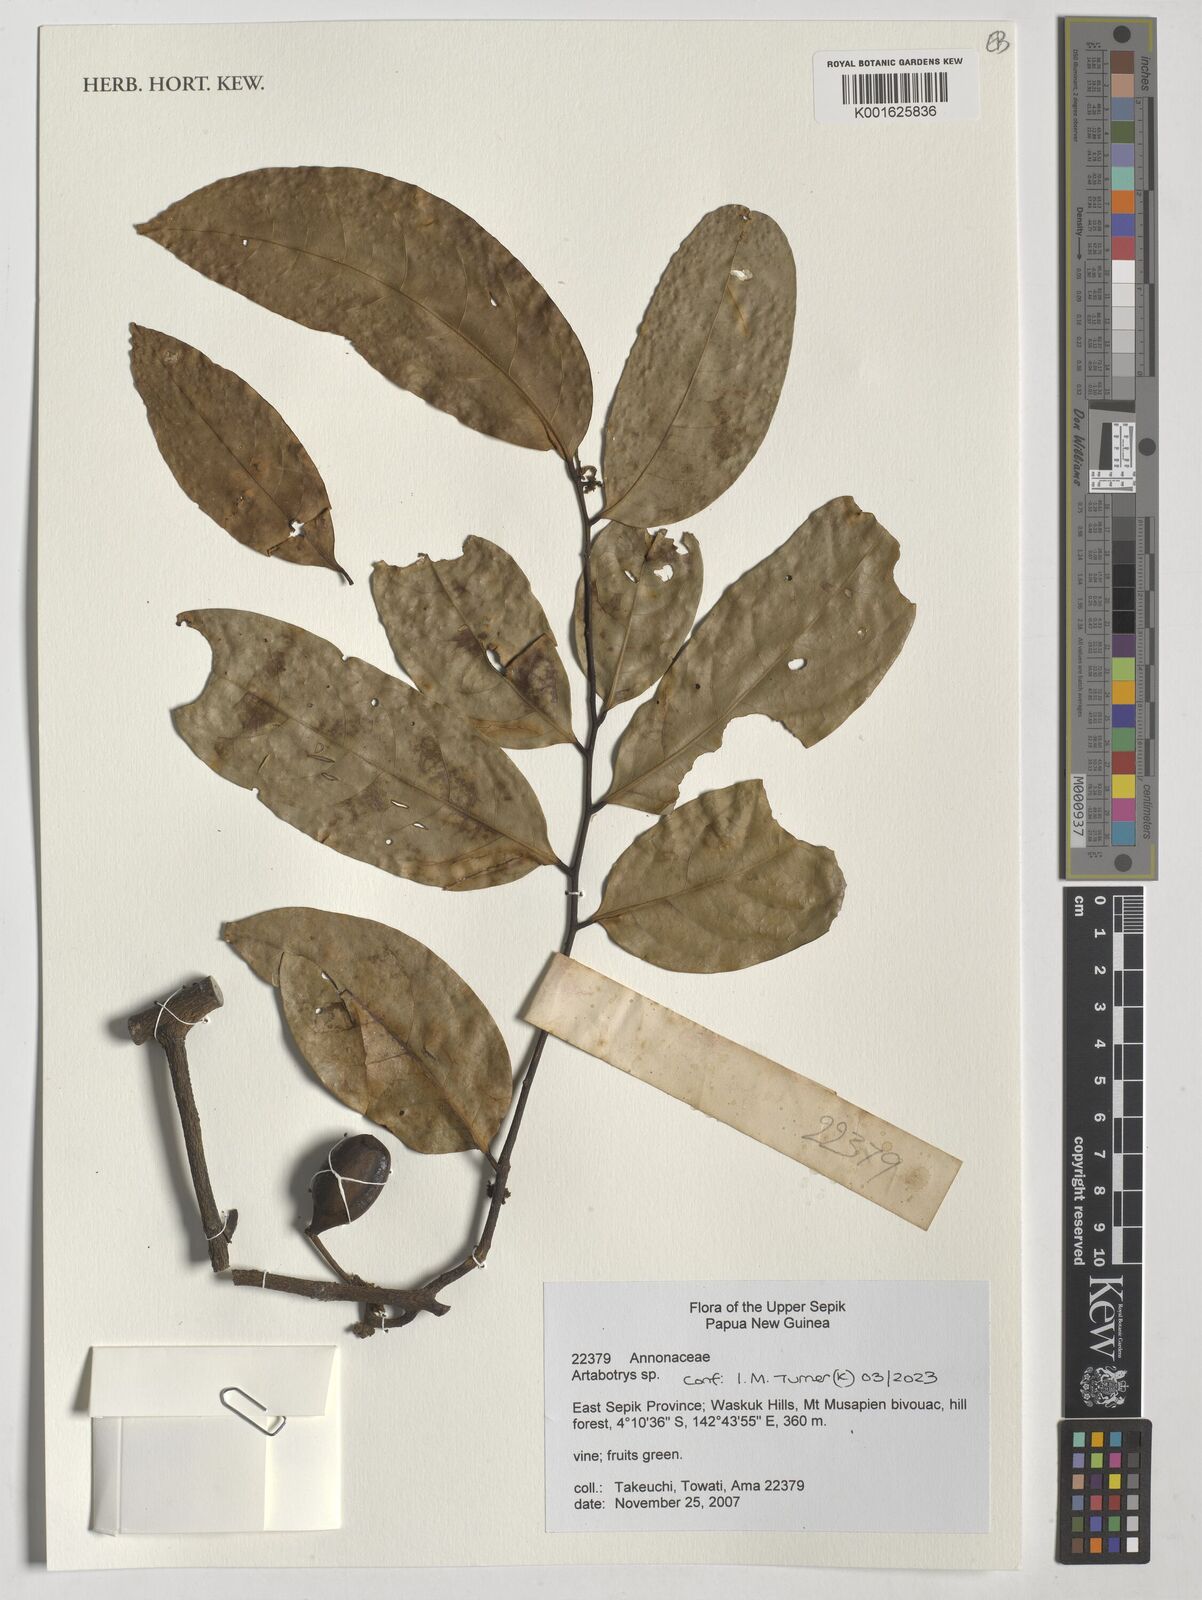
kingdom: Plantae
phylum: Tracheophyta
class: Magnoliopsida
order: Magnoliales
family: Annonaceae
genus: Artabotrys
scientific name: Artabotrys
